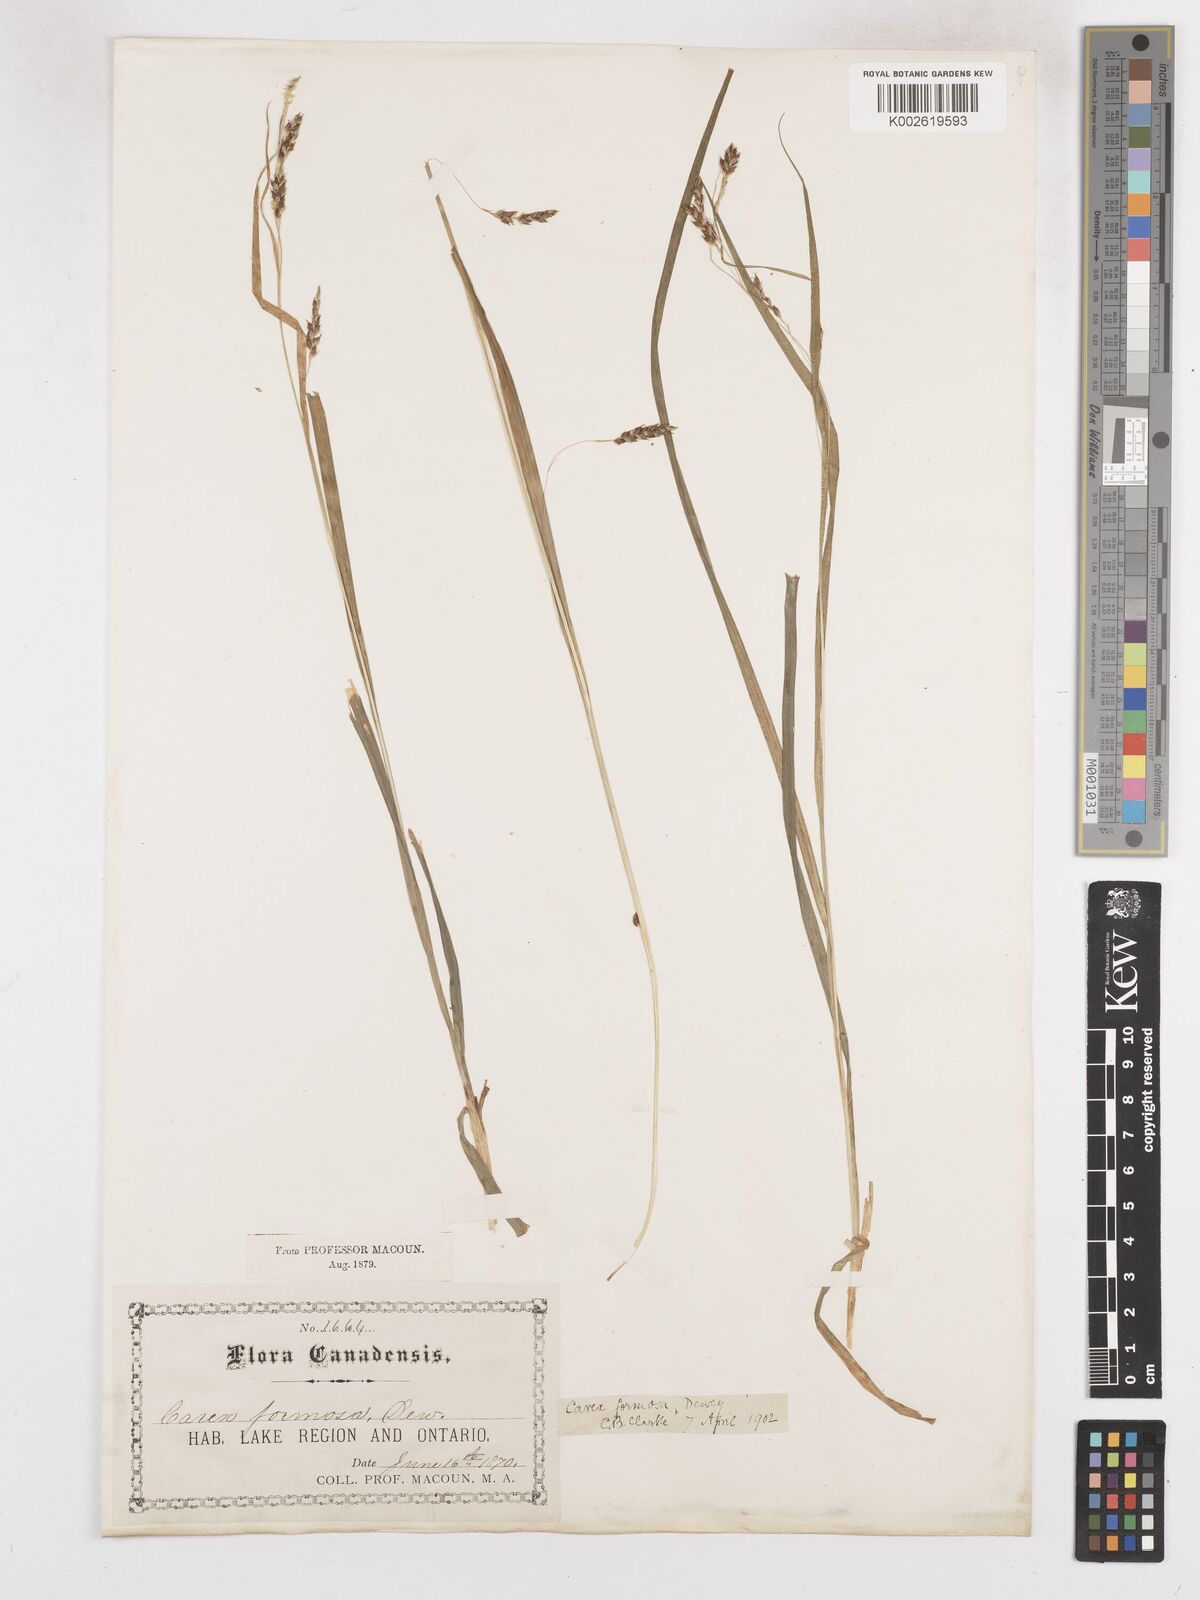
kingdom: Plantae
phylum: Tracheophyta
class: Liliopsida
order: Poales
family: Cyperaceae
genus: Carex
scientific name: Carex formosa
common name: Awnless graceful sedge
